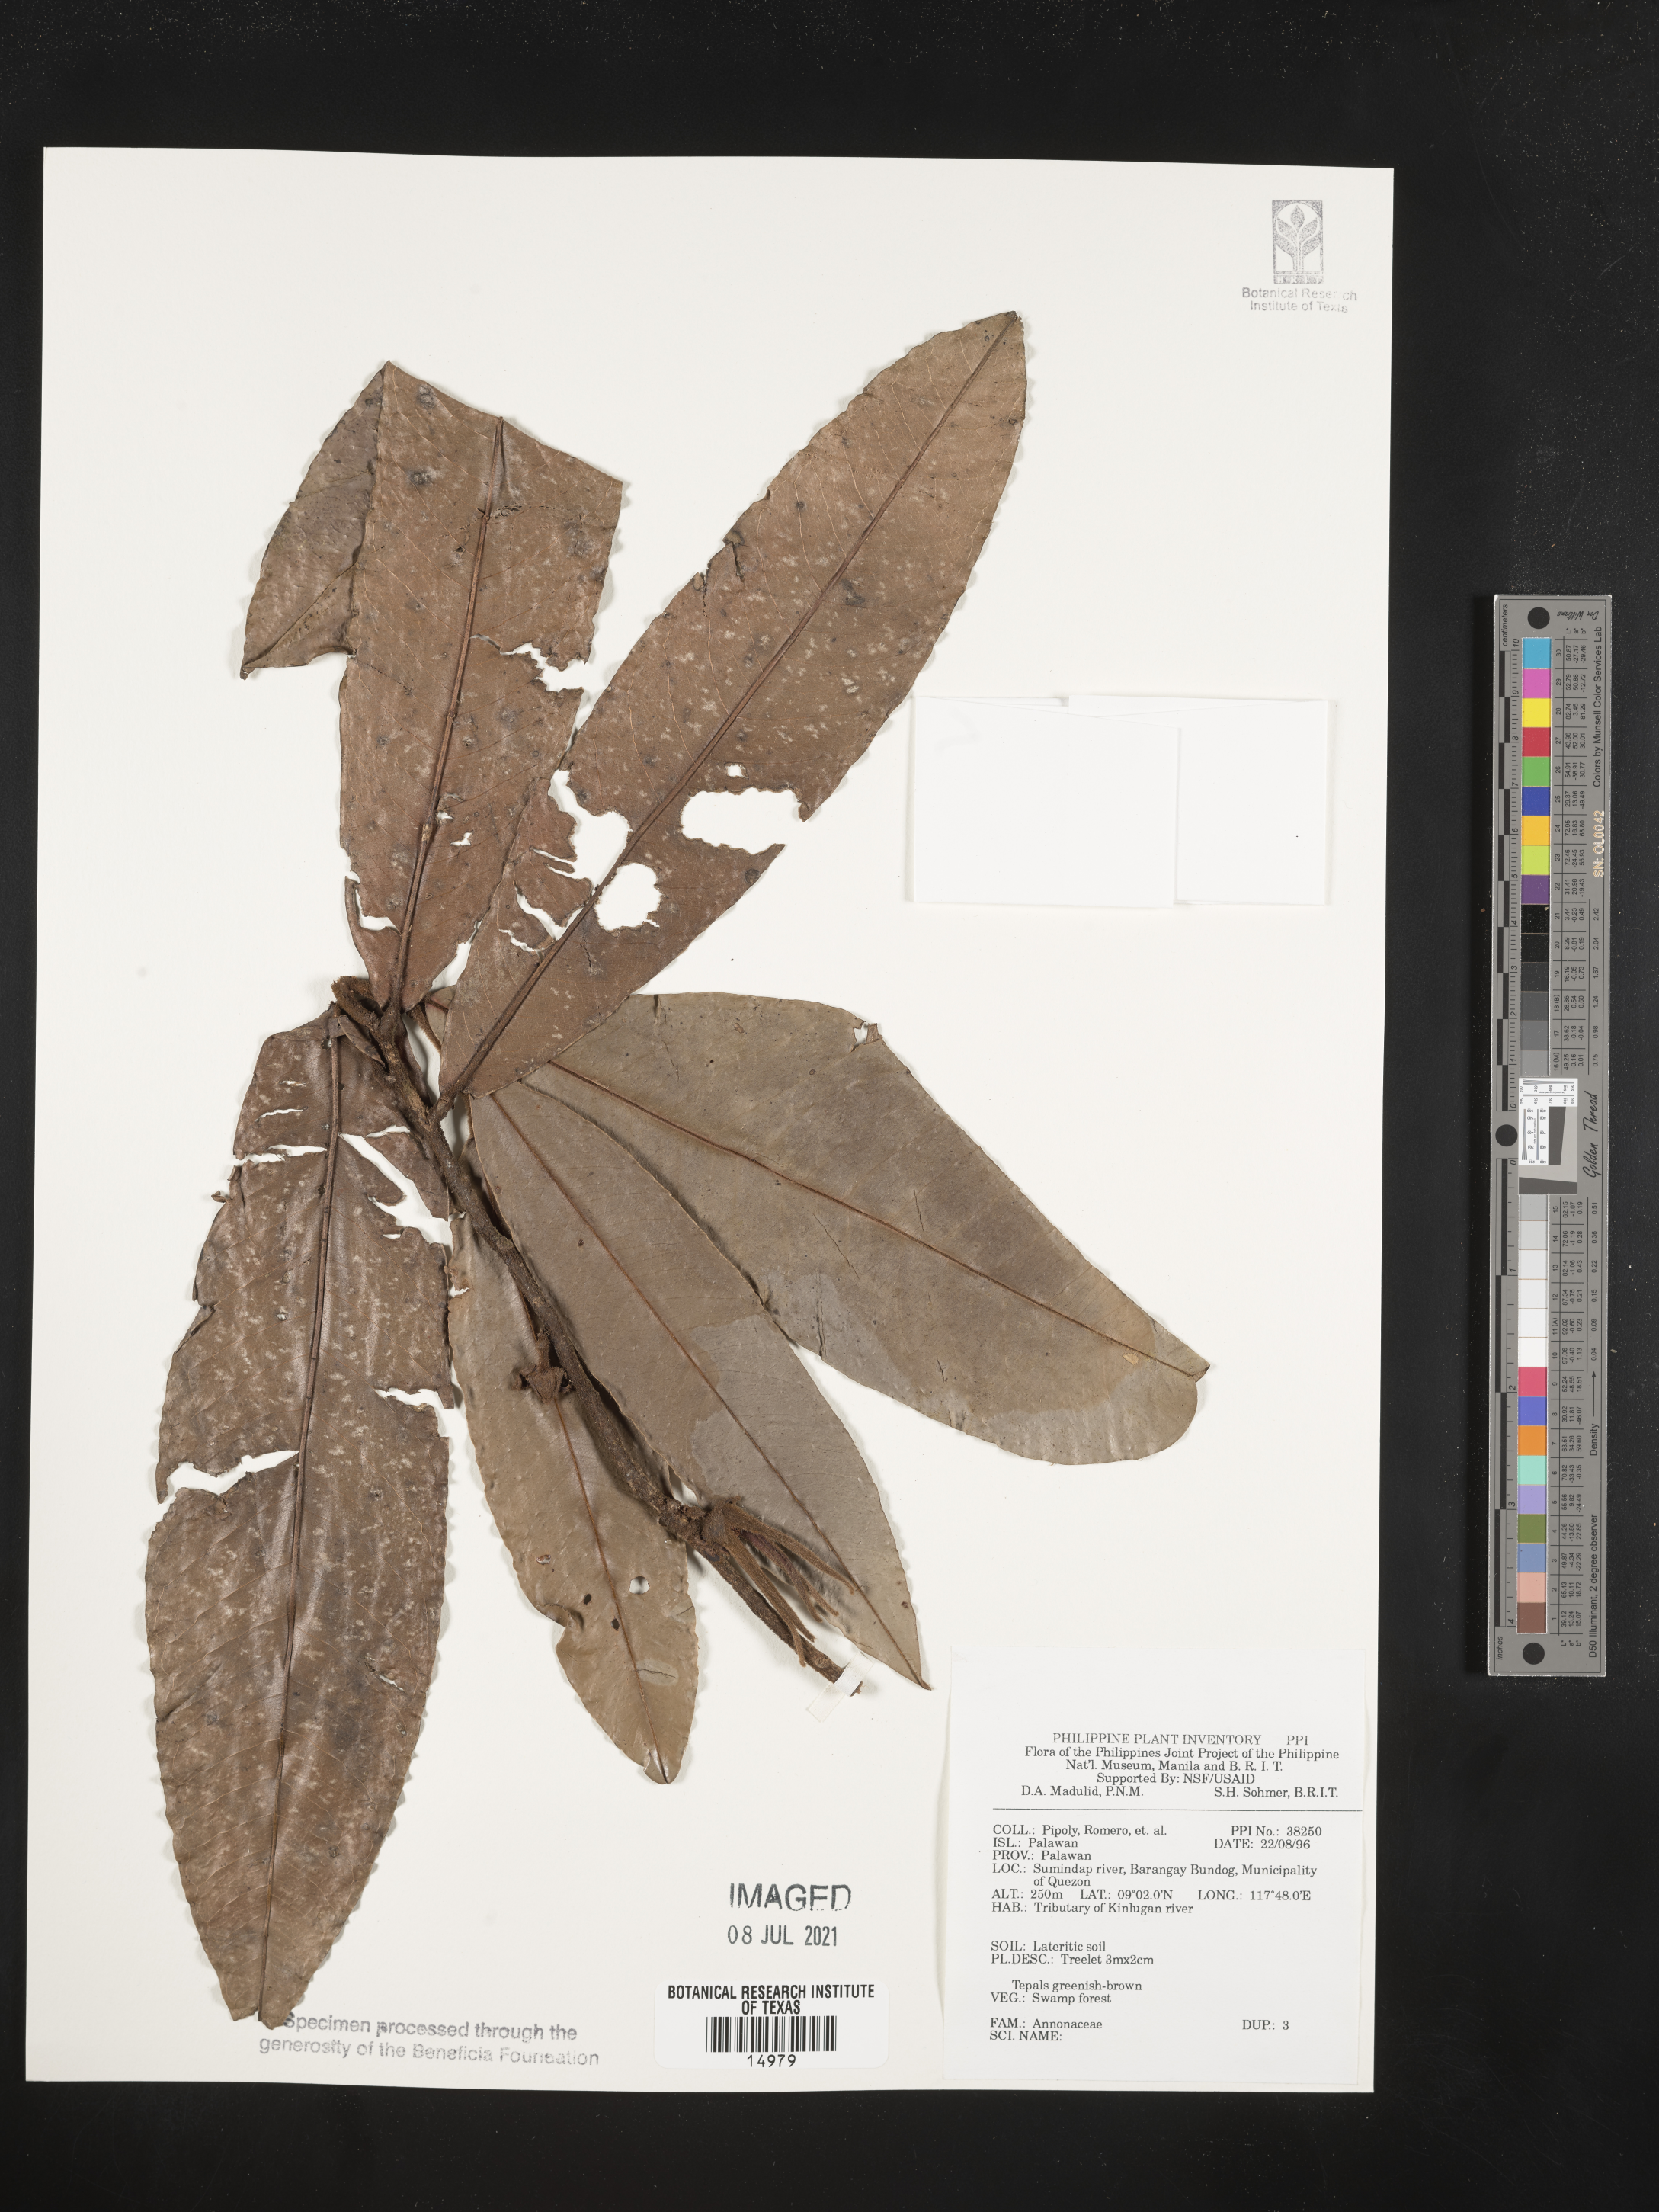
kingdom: Plantae
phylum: Tracheophyta
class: Magnoliopsida
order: Magnoliales
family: Annonaceae
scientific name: Annonaceae
